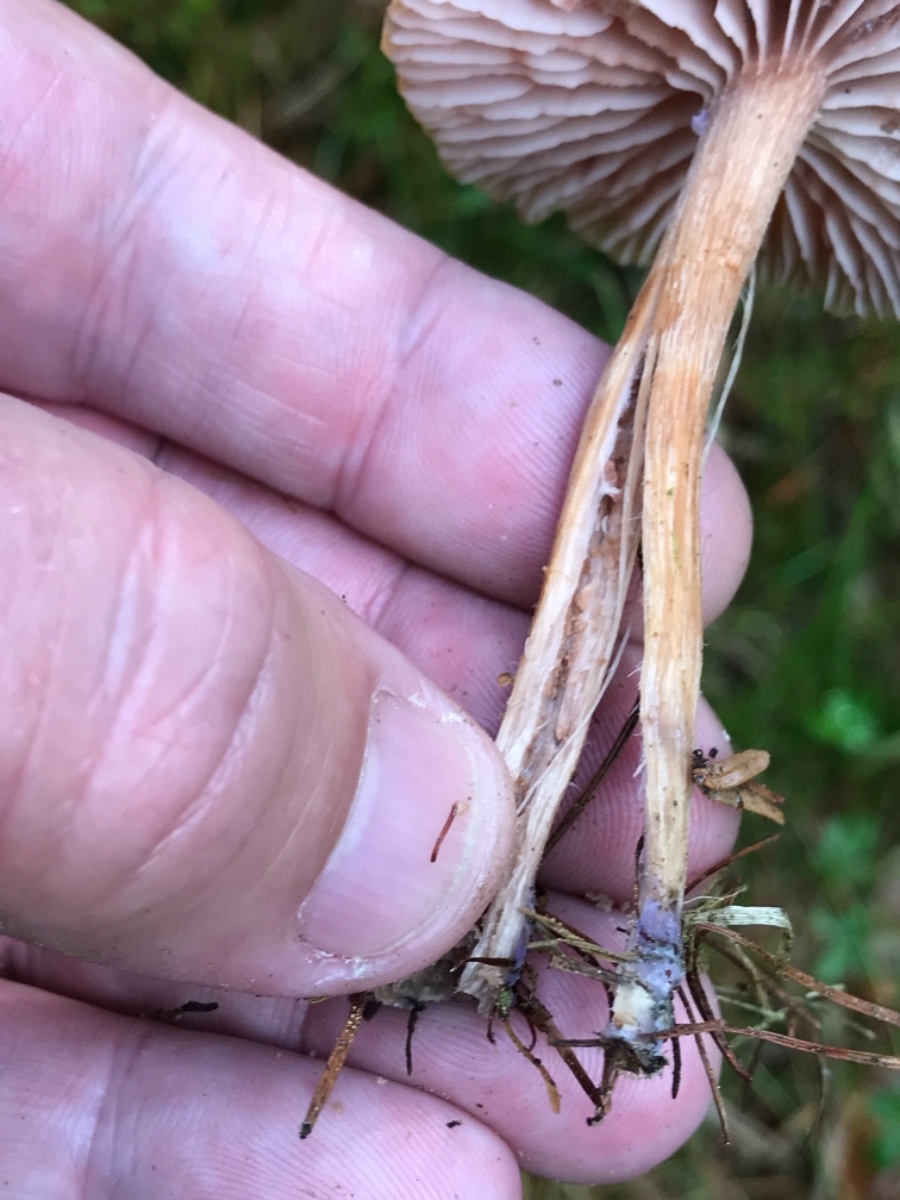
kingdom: Fungi
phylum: Basidiomycota
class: Agaricomycetes
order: Agaricales
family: Hydnangiaceae
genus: Laccaria
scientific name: Laccaria bicolor
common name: tvefarvet ametysthat
